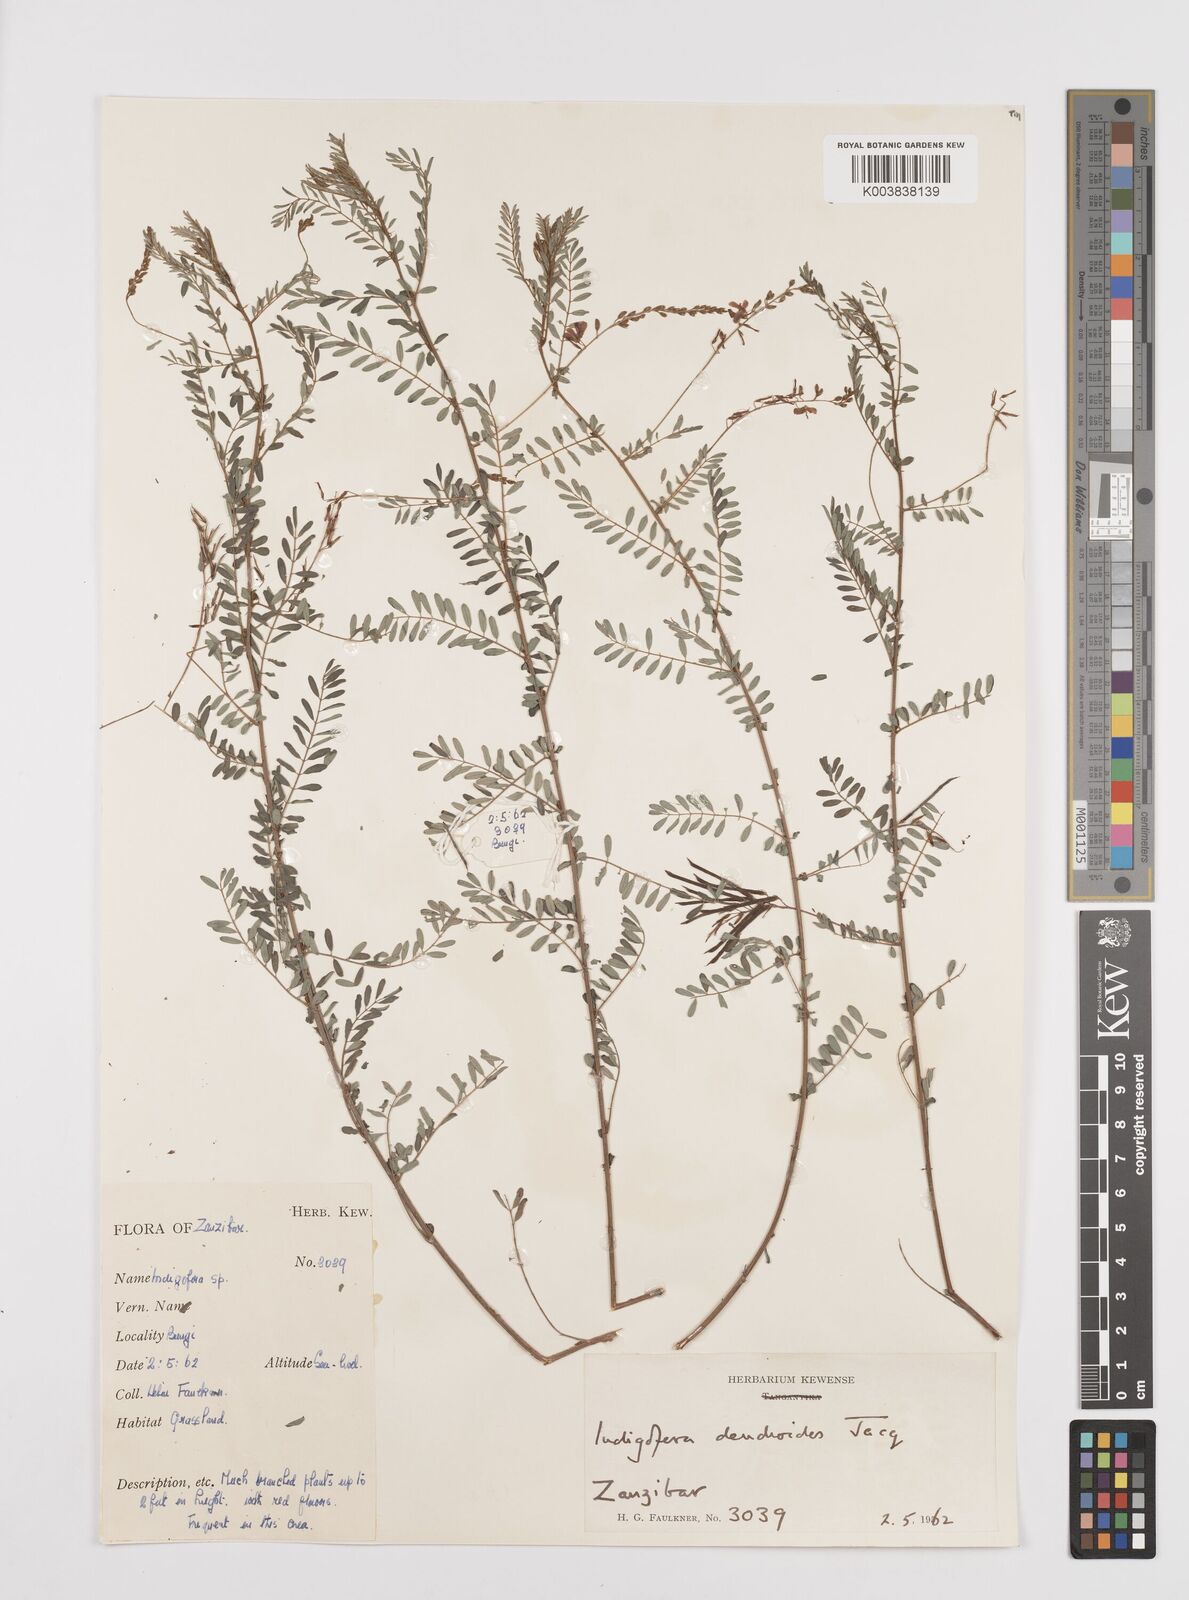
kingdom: Plantae
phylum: Tracheophyta
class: Magnoliopsida
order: Fabales
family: Fabaceae
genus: Indigofera
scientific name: Indigofera dendroides
